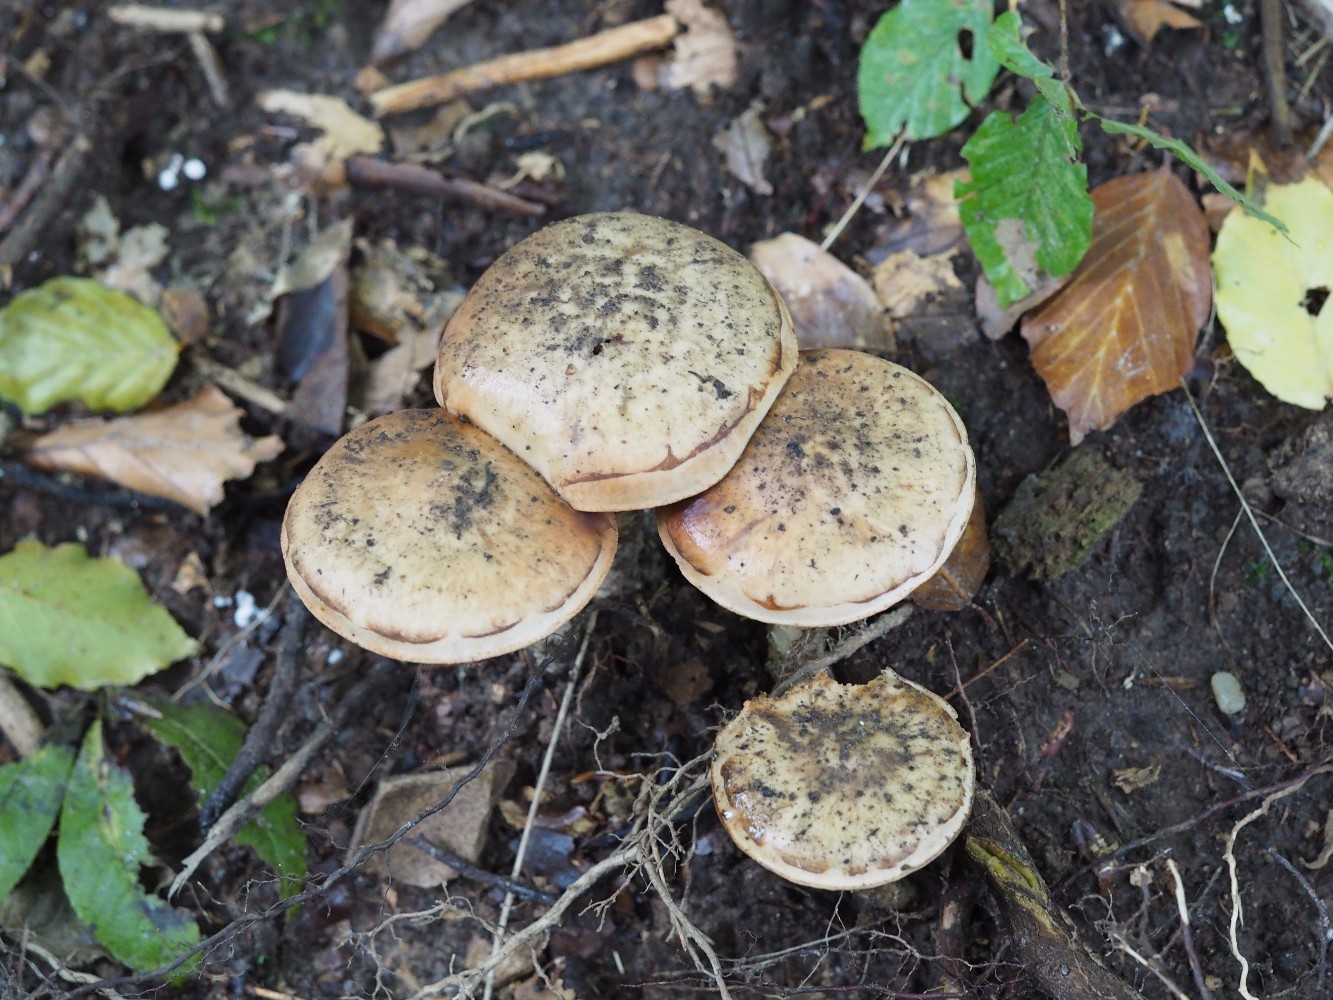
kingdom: Fungi
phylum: Basidiomycota
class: Agaricomycetes
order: Agaricales
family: Hymenogastraceae
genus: Hebeloma
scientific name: Hebeloma radicosum
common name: pælerods-tåreblad
